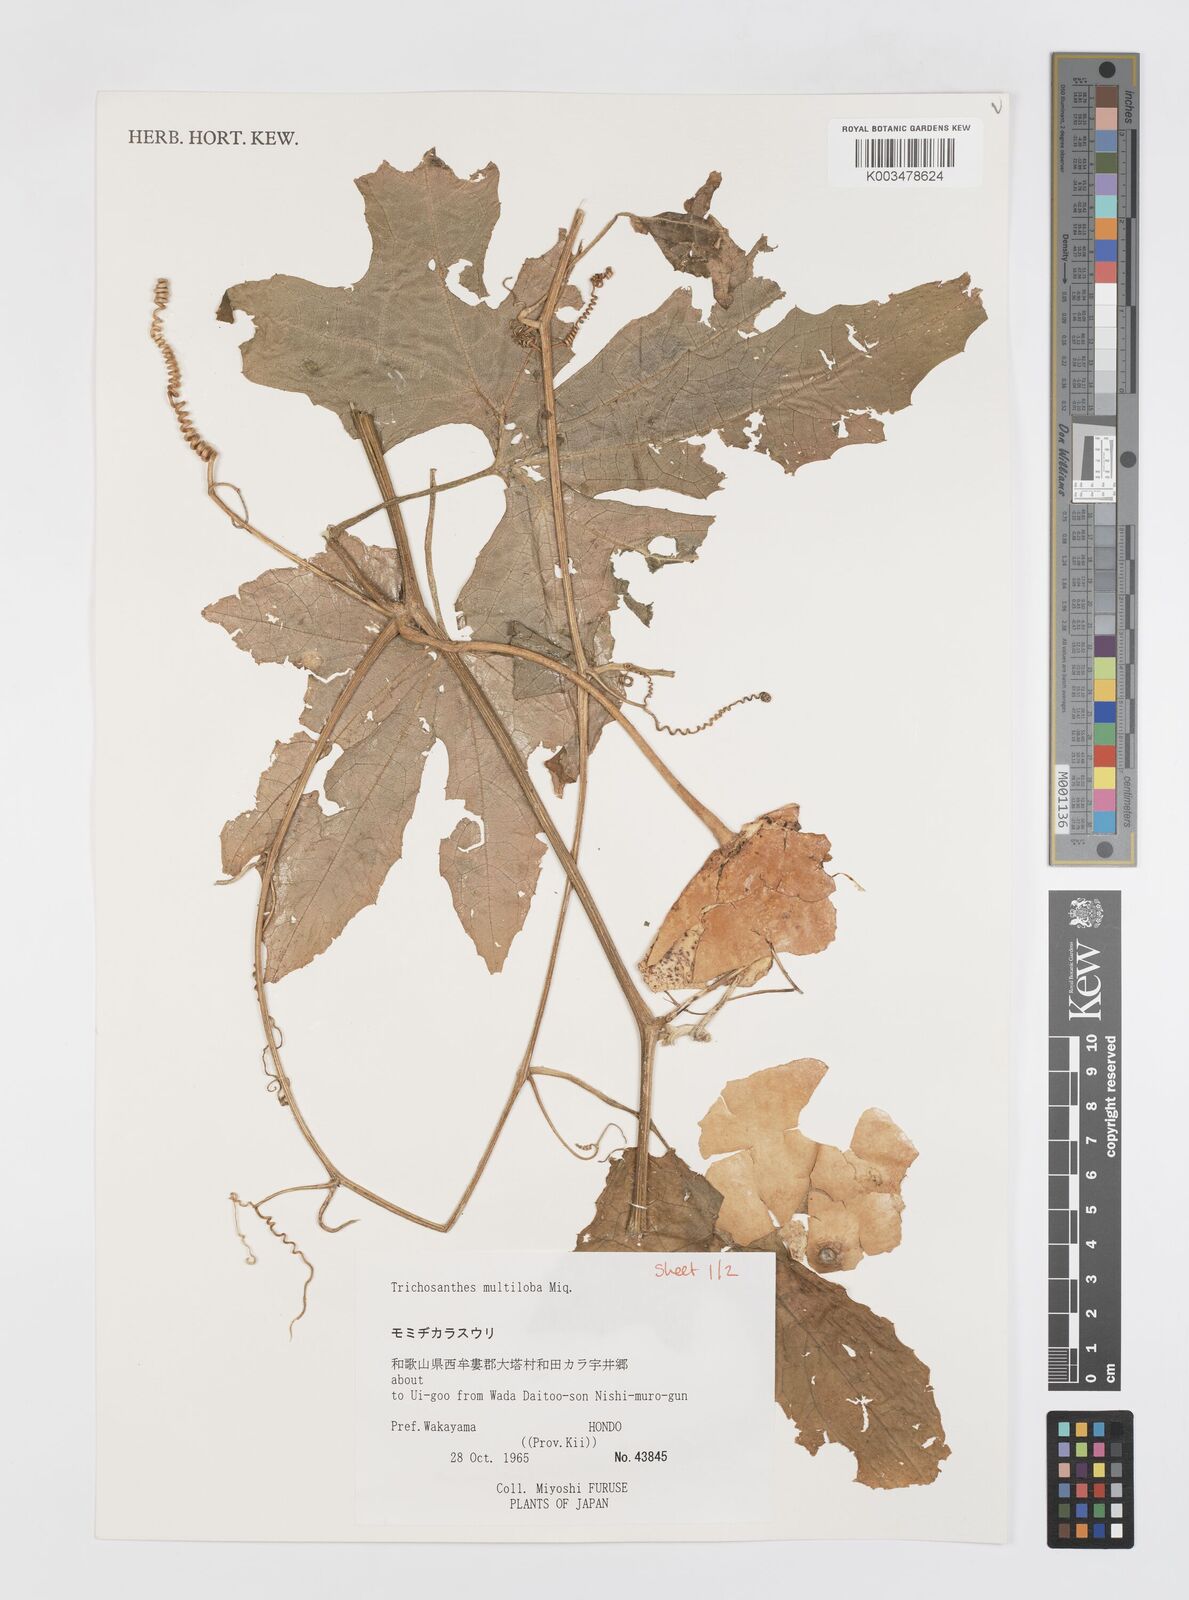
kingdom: Plantae
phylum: Tracheophyta
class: Magnoliopsida
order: Cucurbitales
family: Cucurbitaceae
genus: Trichosanthes
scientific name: Trichosanthes multiloba
